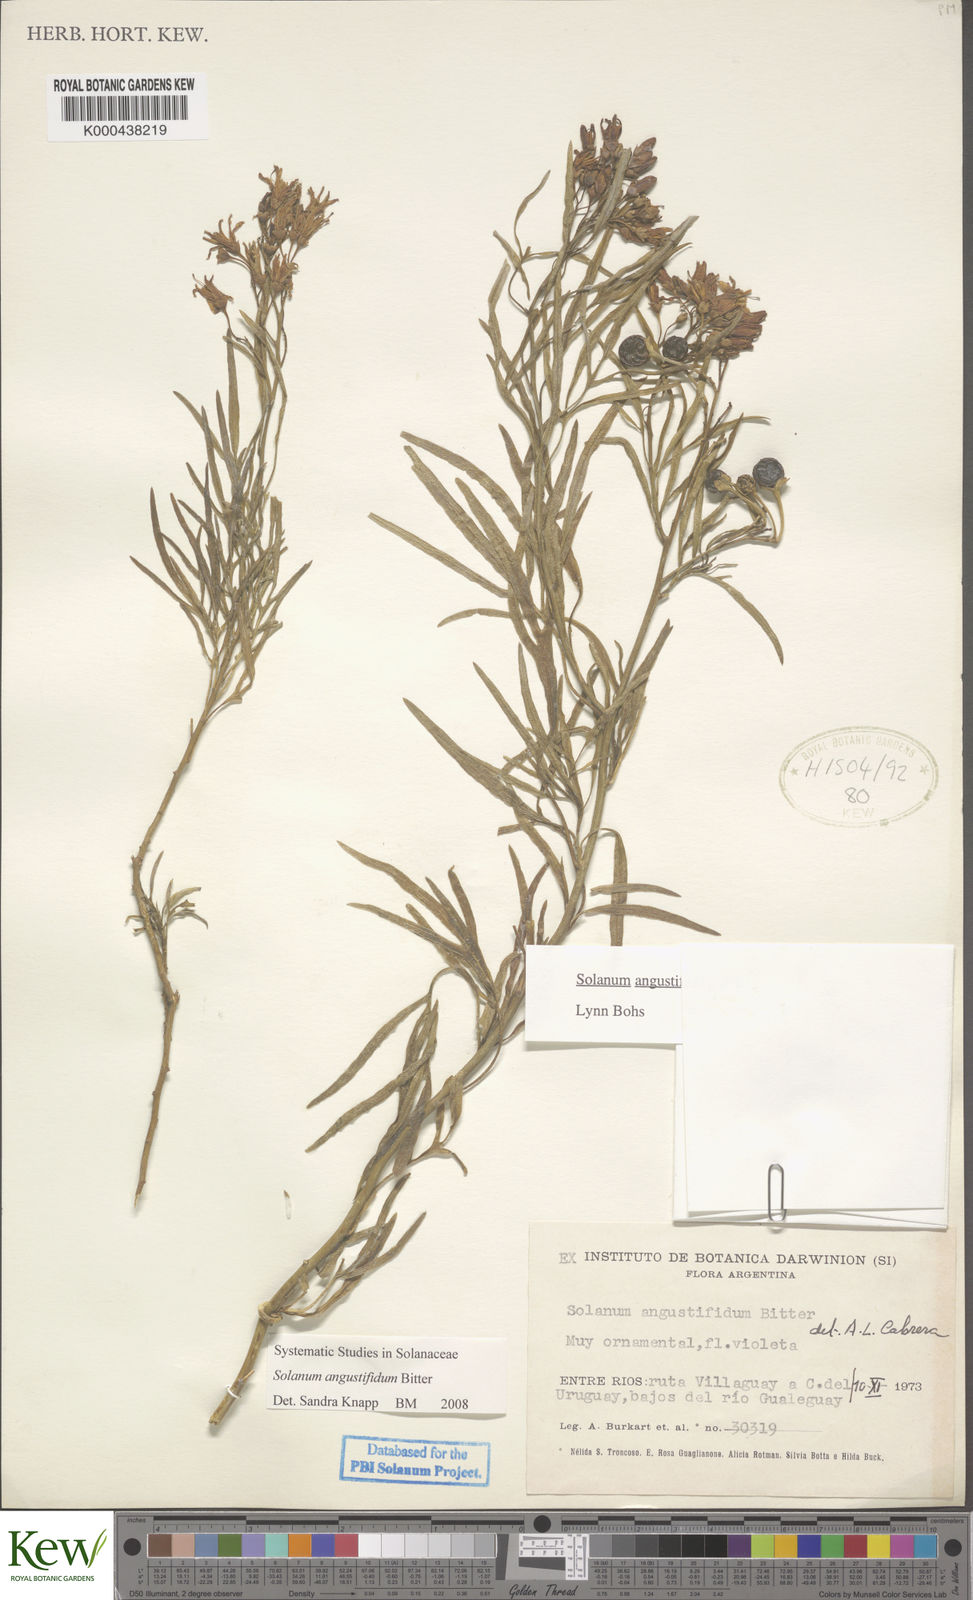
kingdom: Plantae
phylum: Tracheophyta
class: Magnoliopsida
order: Solanales
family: Solanaceae
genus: Solanum
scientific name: Solanum angustifidum
